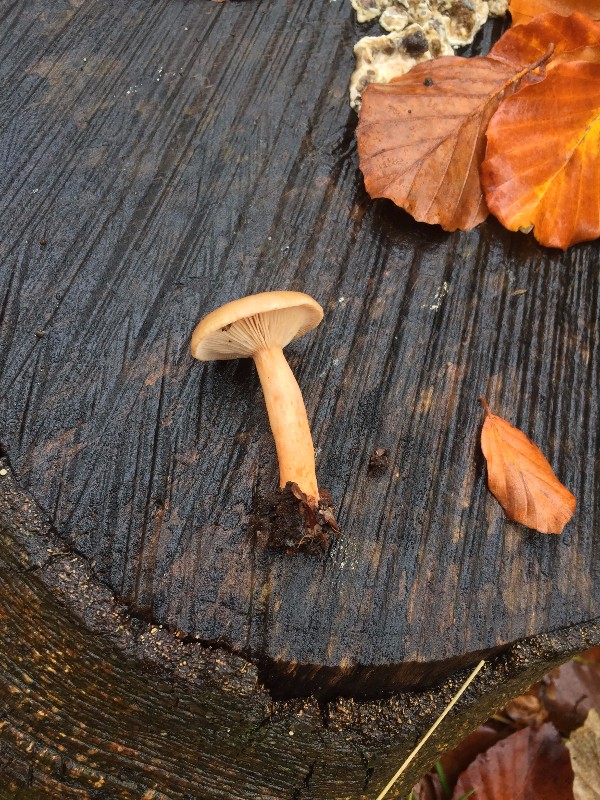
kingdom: Fungi
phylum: Basidiomycota
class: Agaricomycetes
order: Russulales
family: Russulaceae
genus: Lactarius
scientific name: Lactarius subdulcis
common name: sødlig mælkehat
